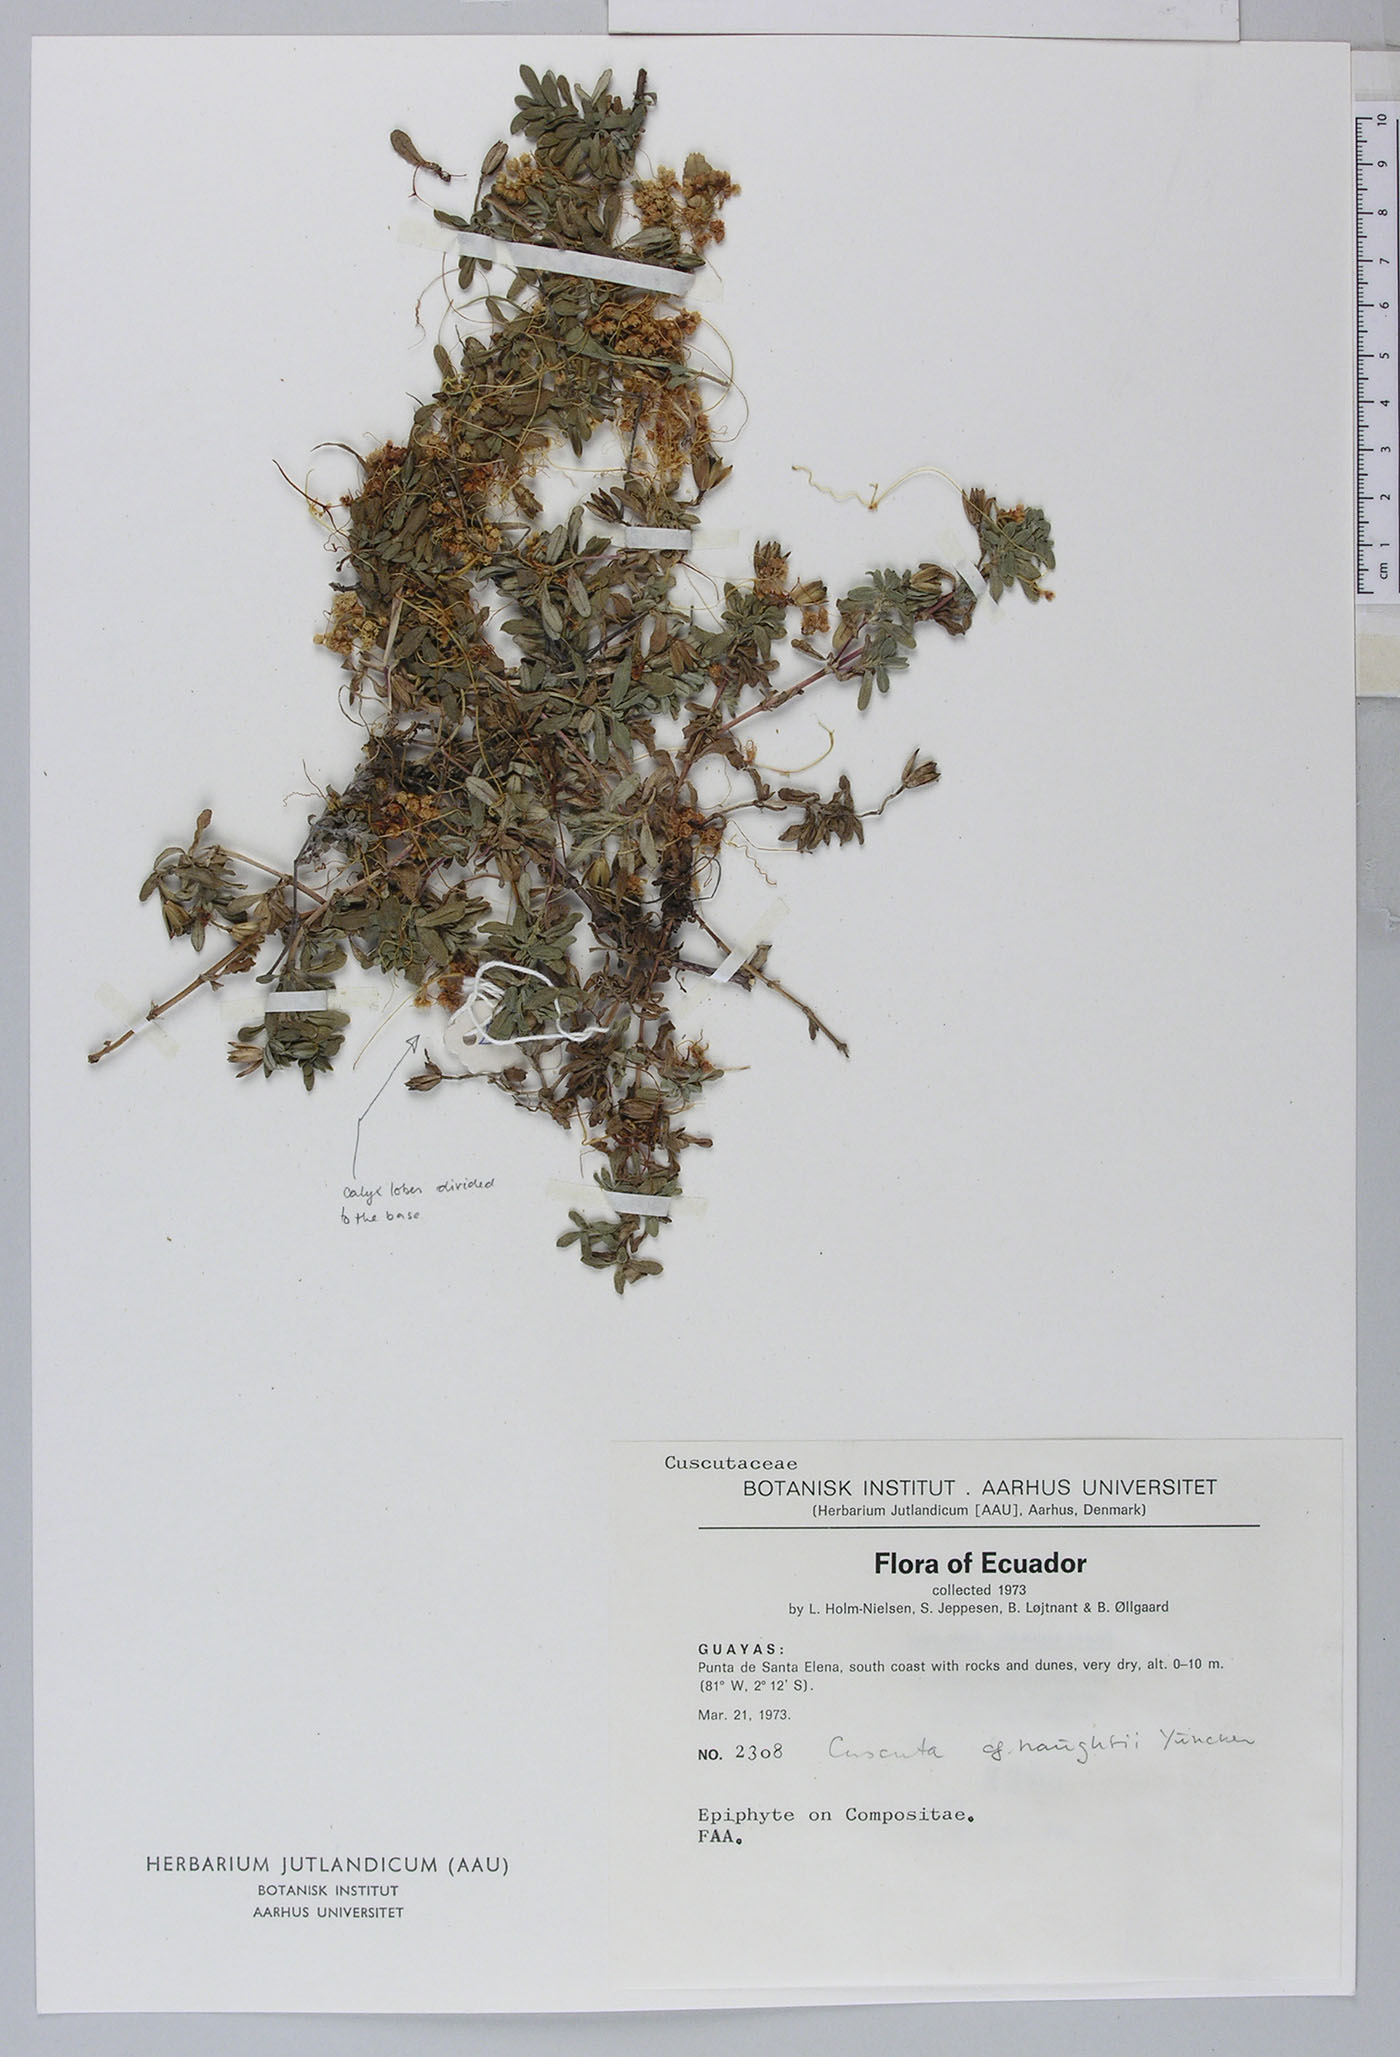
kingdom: Plantae
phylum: Tracheophyta
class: Magnoliopsida
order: Solanales
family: Convolvulaceae
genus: Cuscuta
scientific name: Cuscuta haughtii
